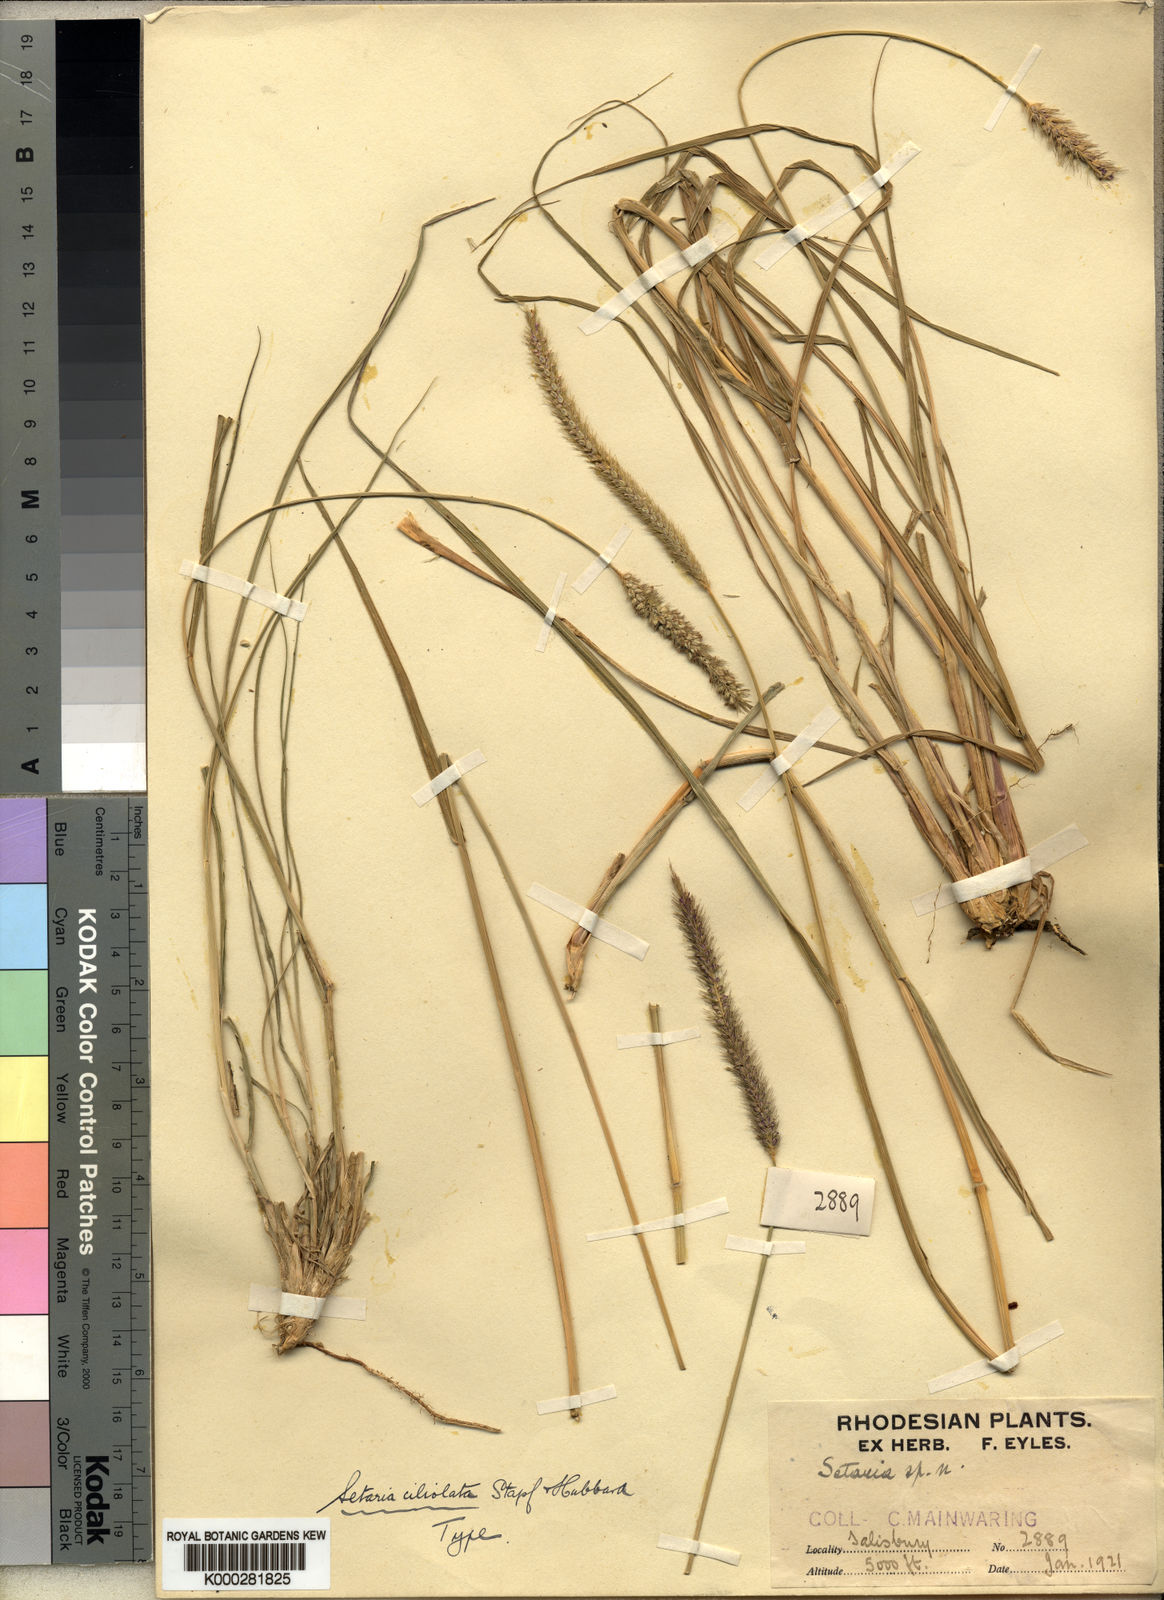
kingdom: Plantae
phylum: Tracheophyta
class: Liliopsida
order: Poales
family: Poaceae
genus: Setaria
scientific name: Setaria incrassata
